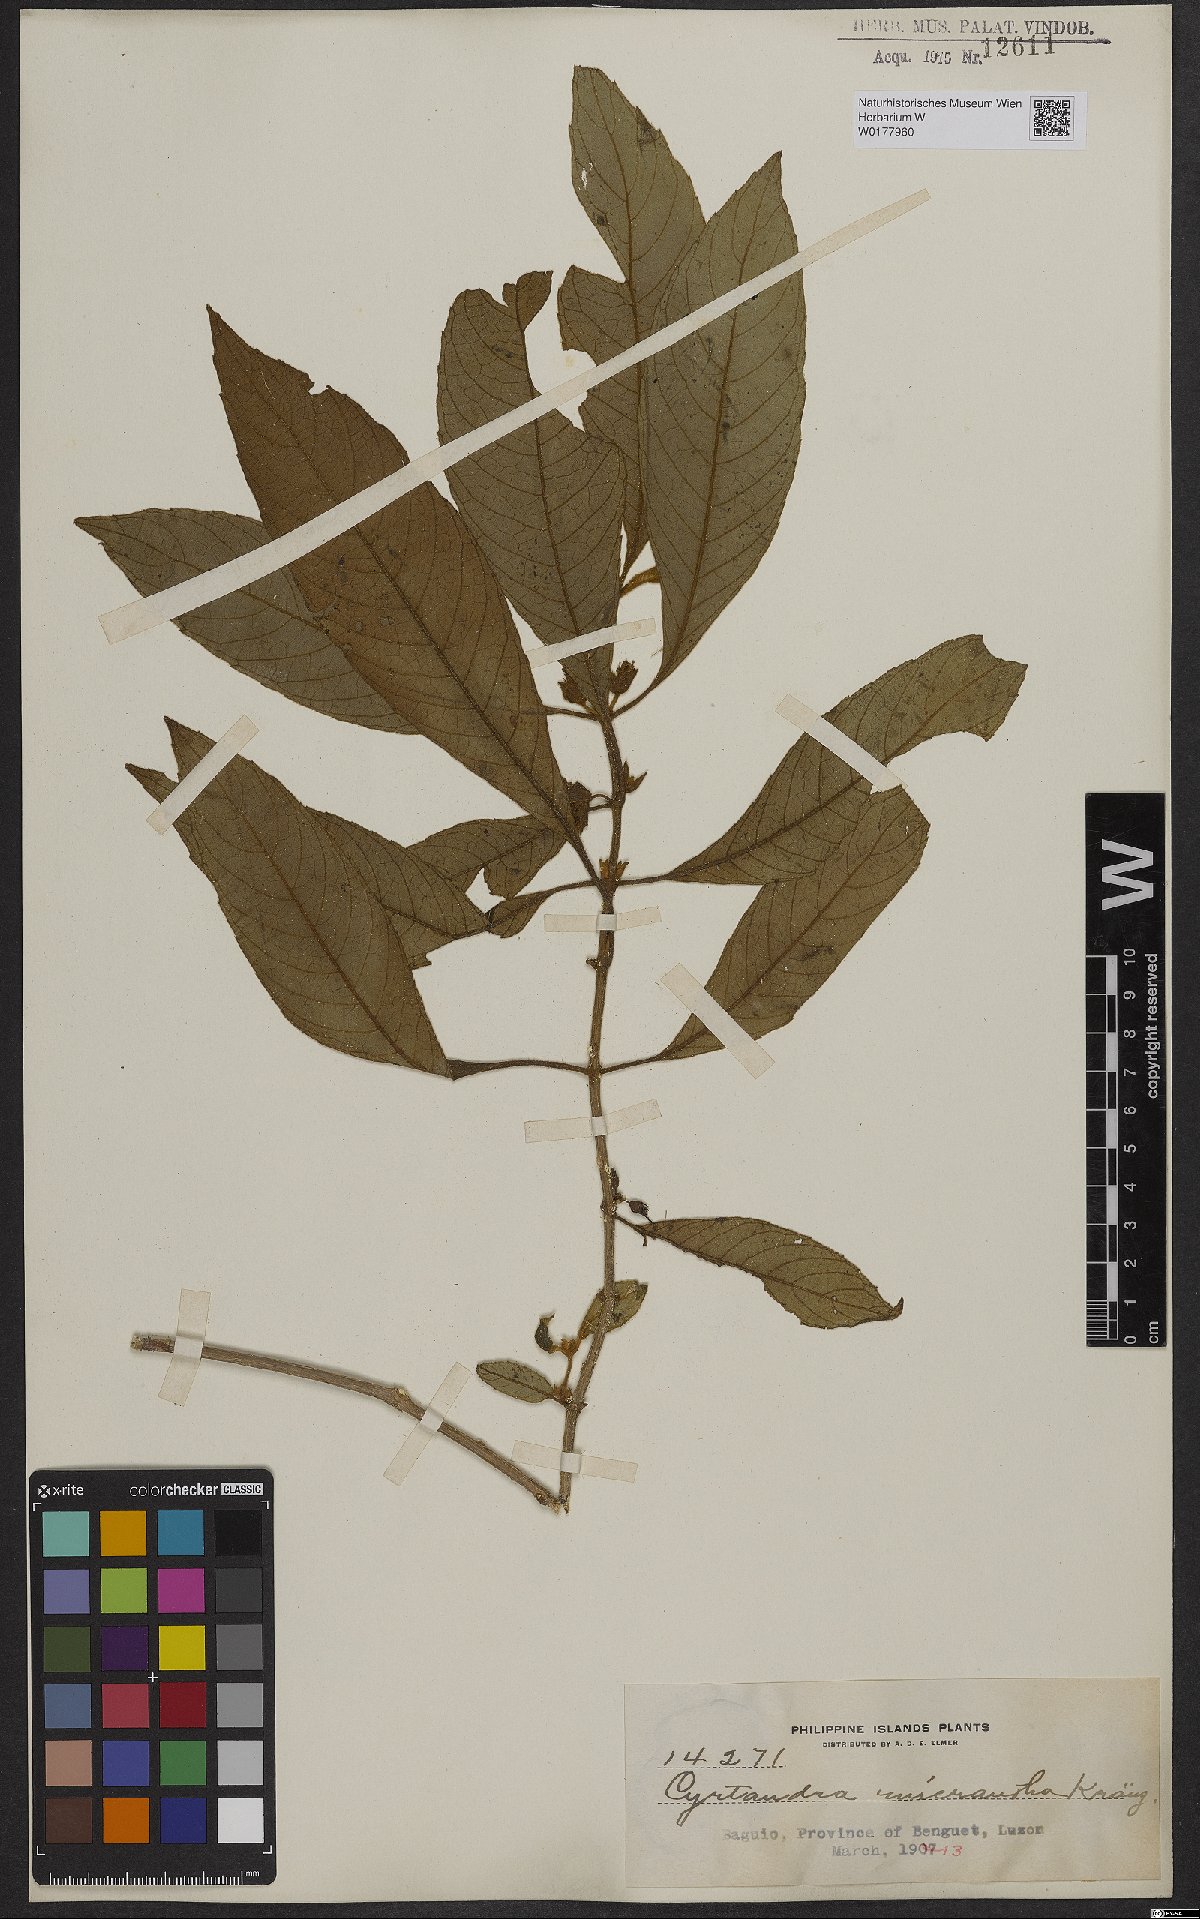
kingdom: Plantae
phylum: Tracheophyta
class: Magnoliopsida
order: Lamiales
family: Gesneriaceae
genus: Cyrtandra
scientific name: Cyrtandra parviflora
